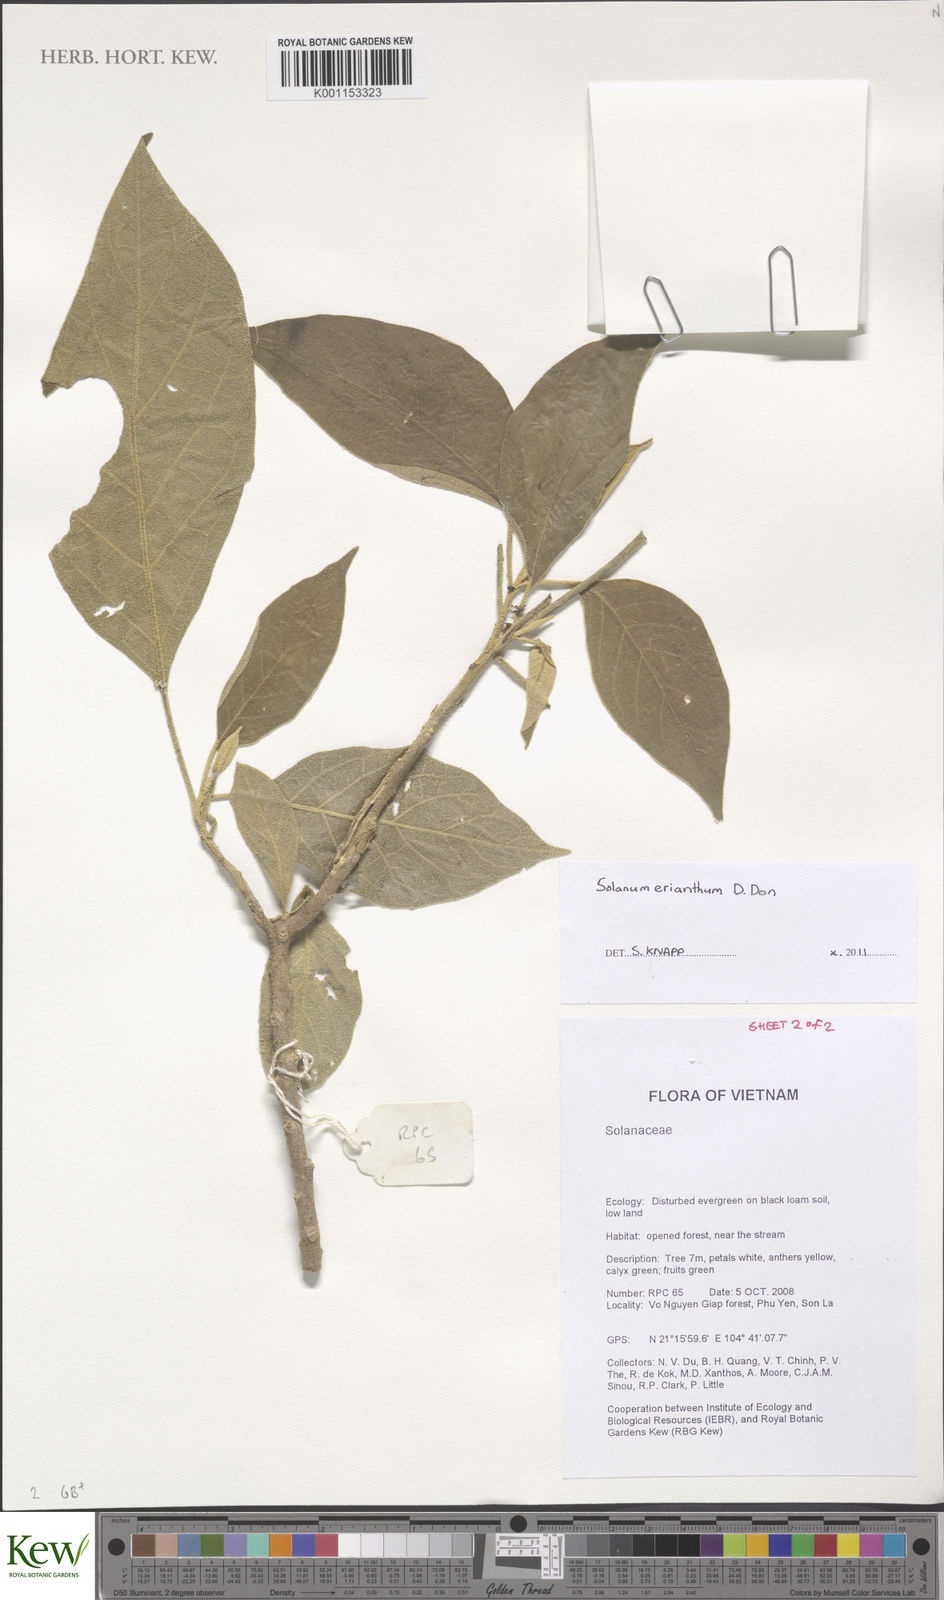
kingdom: Plantae
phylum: Tracheophyta
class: Magnoliopsida
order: Solanales
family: Solanaceae
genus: Solanum
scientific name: Solanum erianthum
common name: Tobacco-tree
